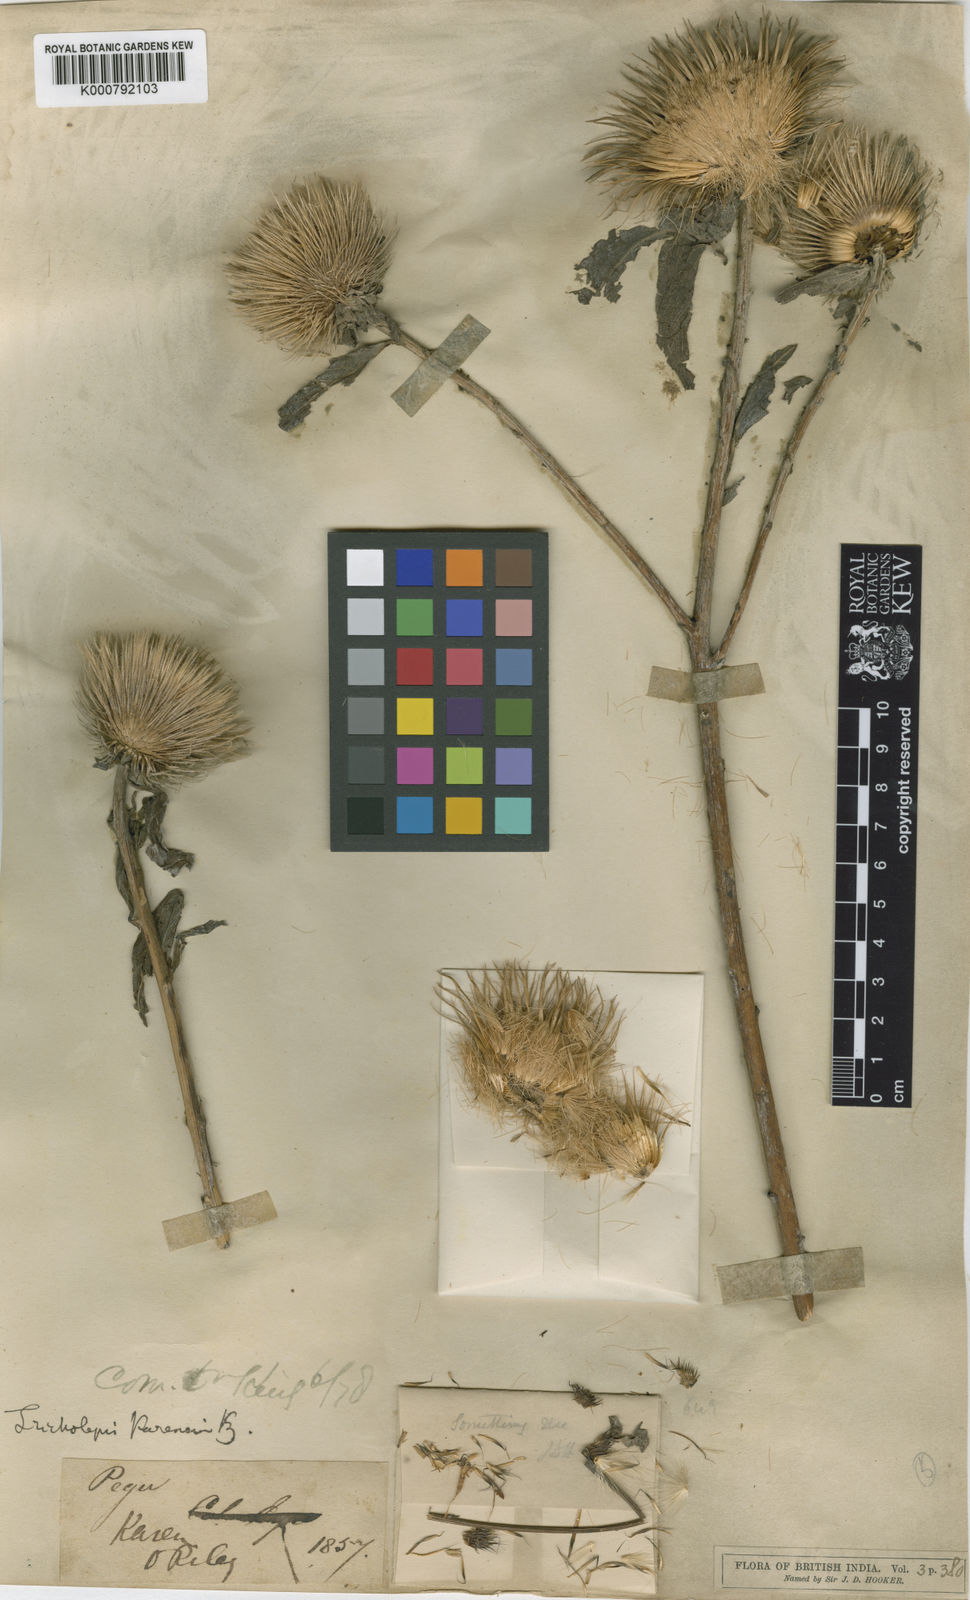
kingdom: Plantae
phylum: Tracheophyta
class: Magnoliopsida
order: Asterales
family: Asteraceae
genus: Tricholepis
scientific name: Tricholepis karensium
